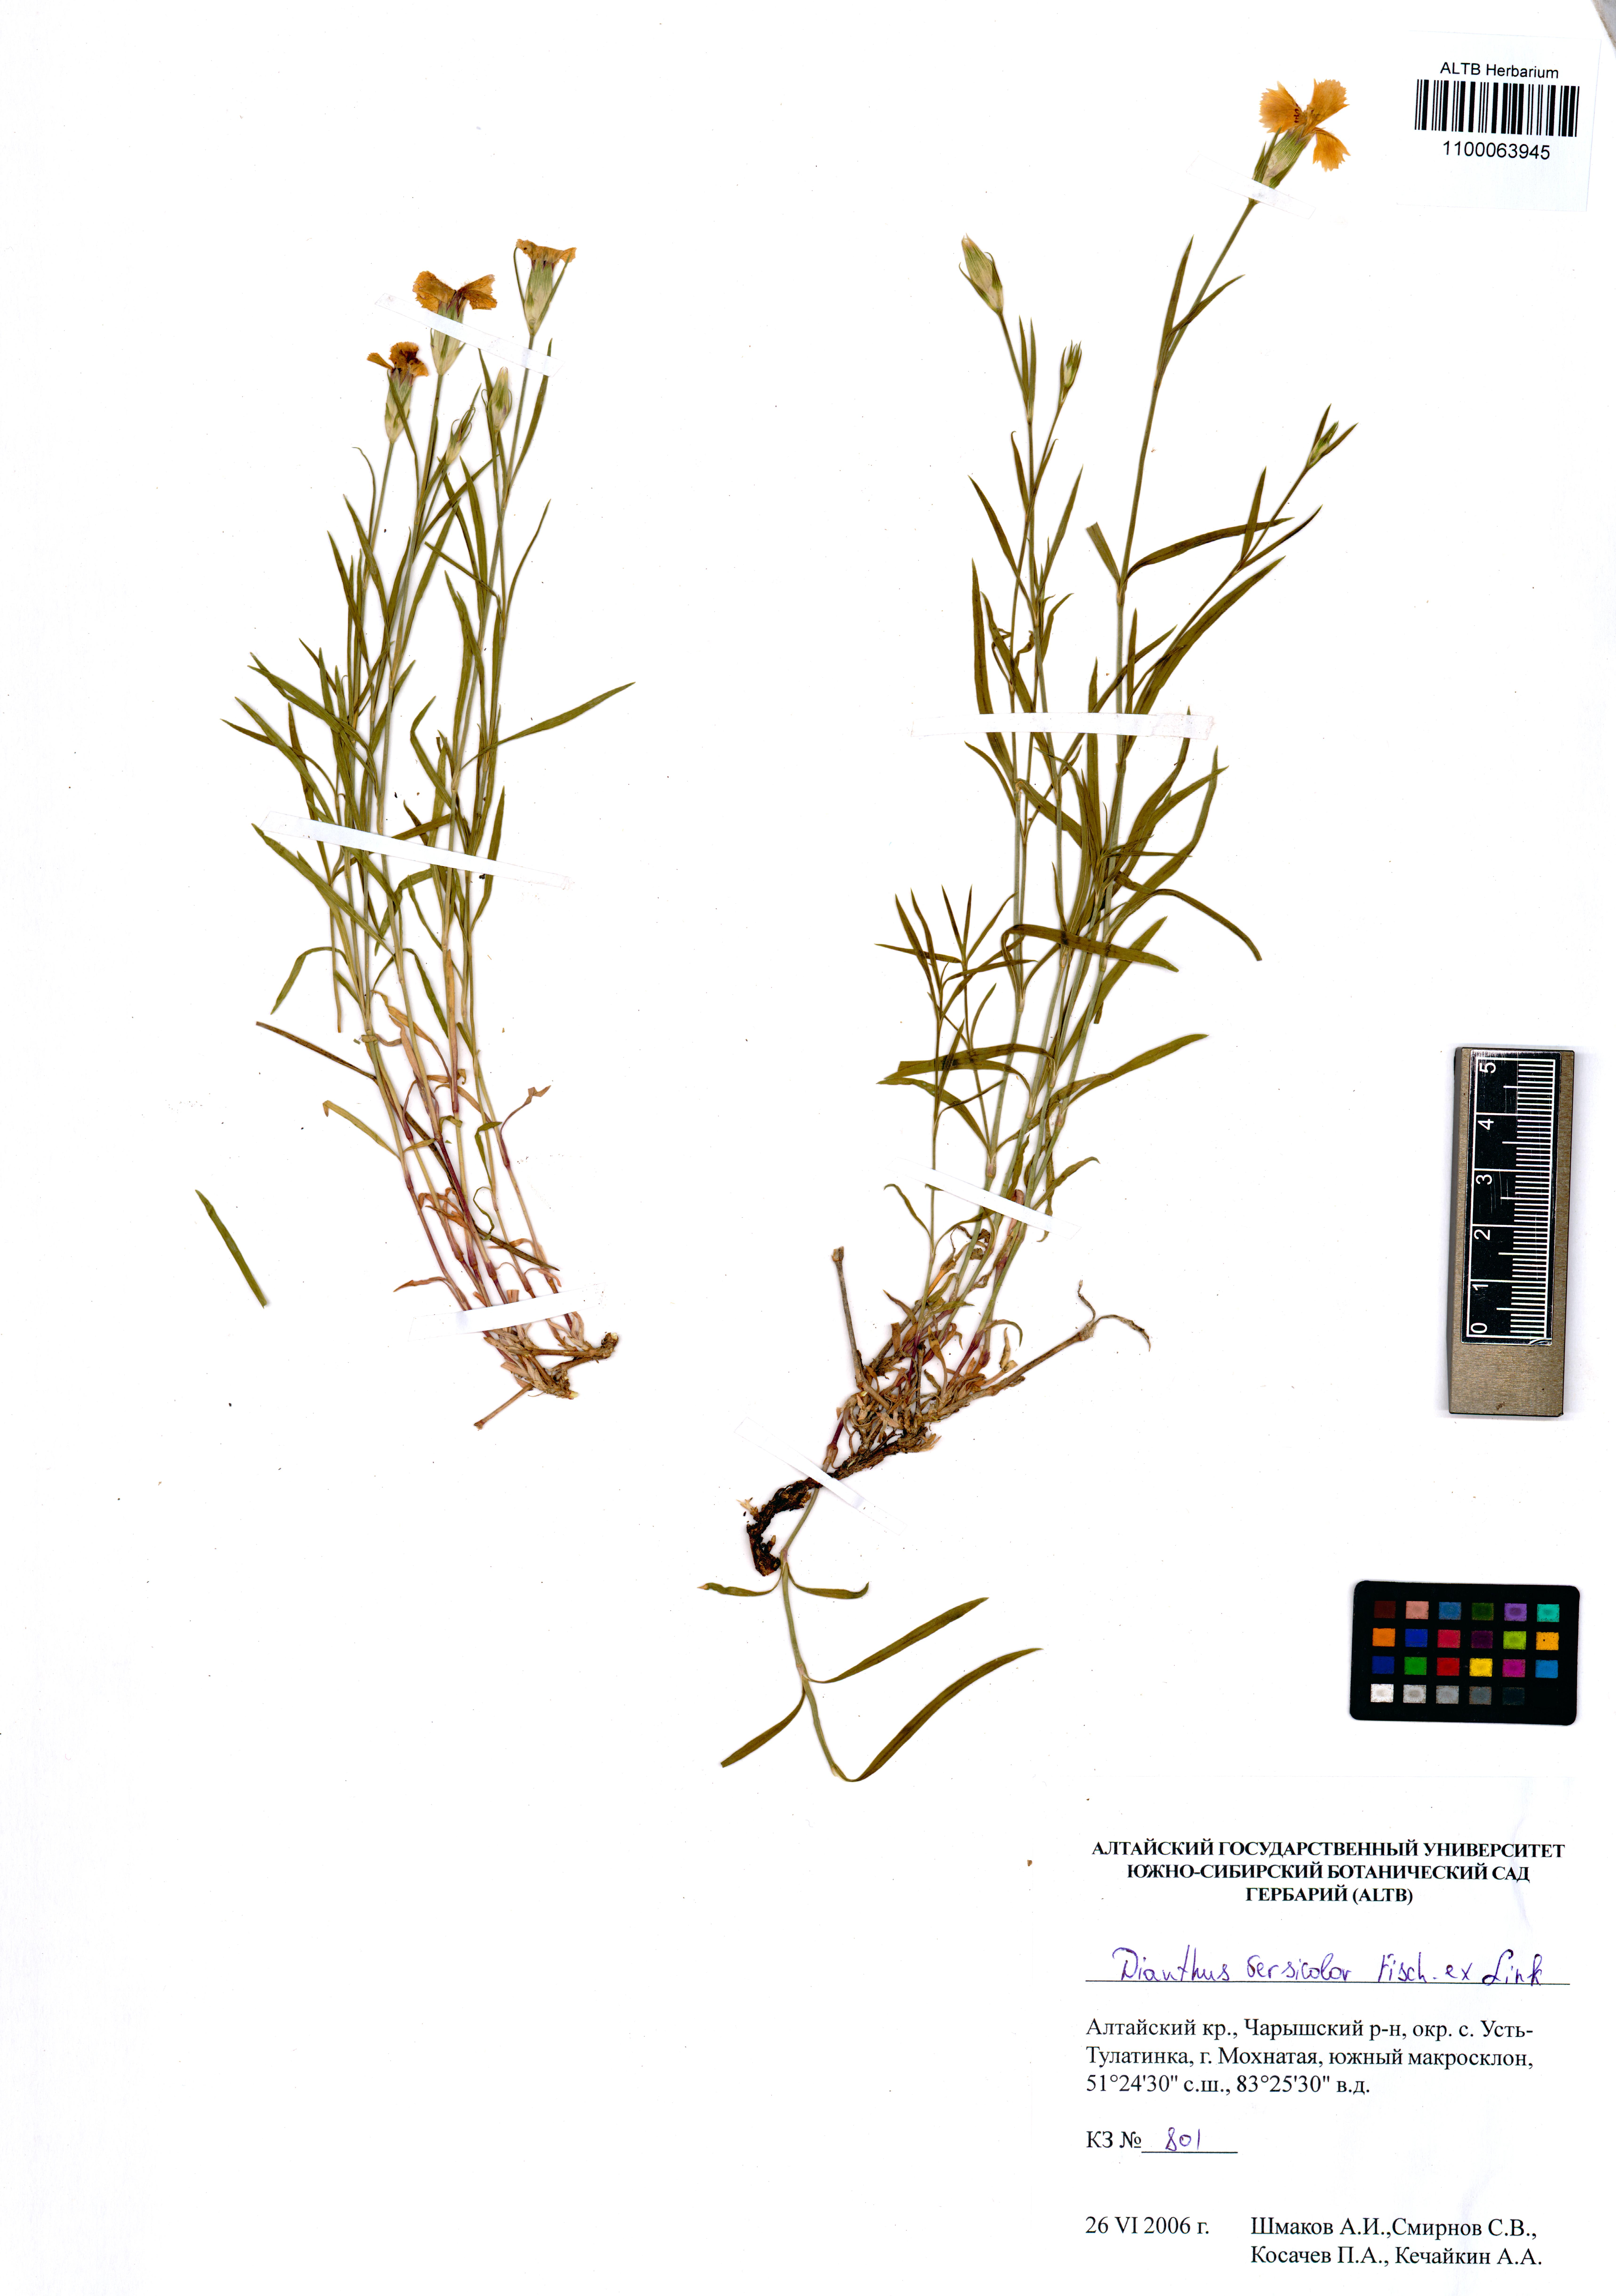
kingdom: Plantae
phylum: Tracheophyta
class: Magnoliopsida
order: Caryophyllales
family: Caryophyllaceae
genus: Dianthus
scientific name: Dianthus chinensis
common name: Rainbow pink
